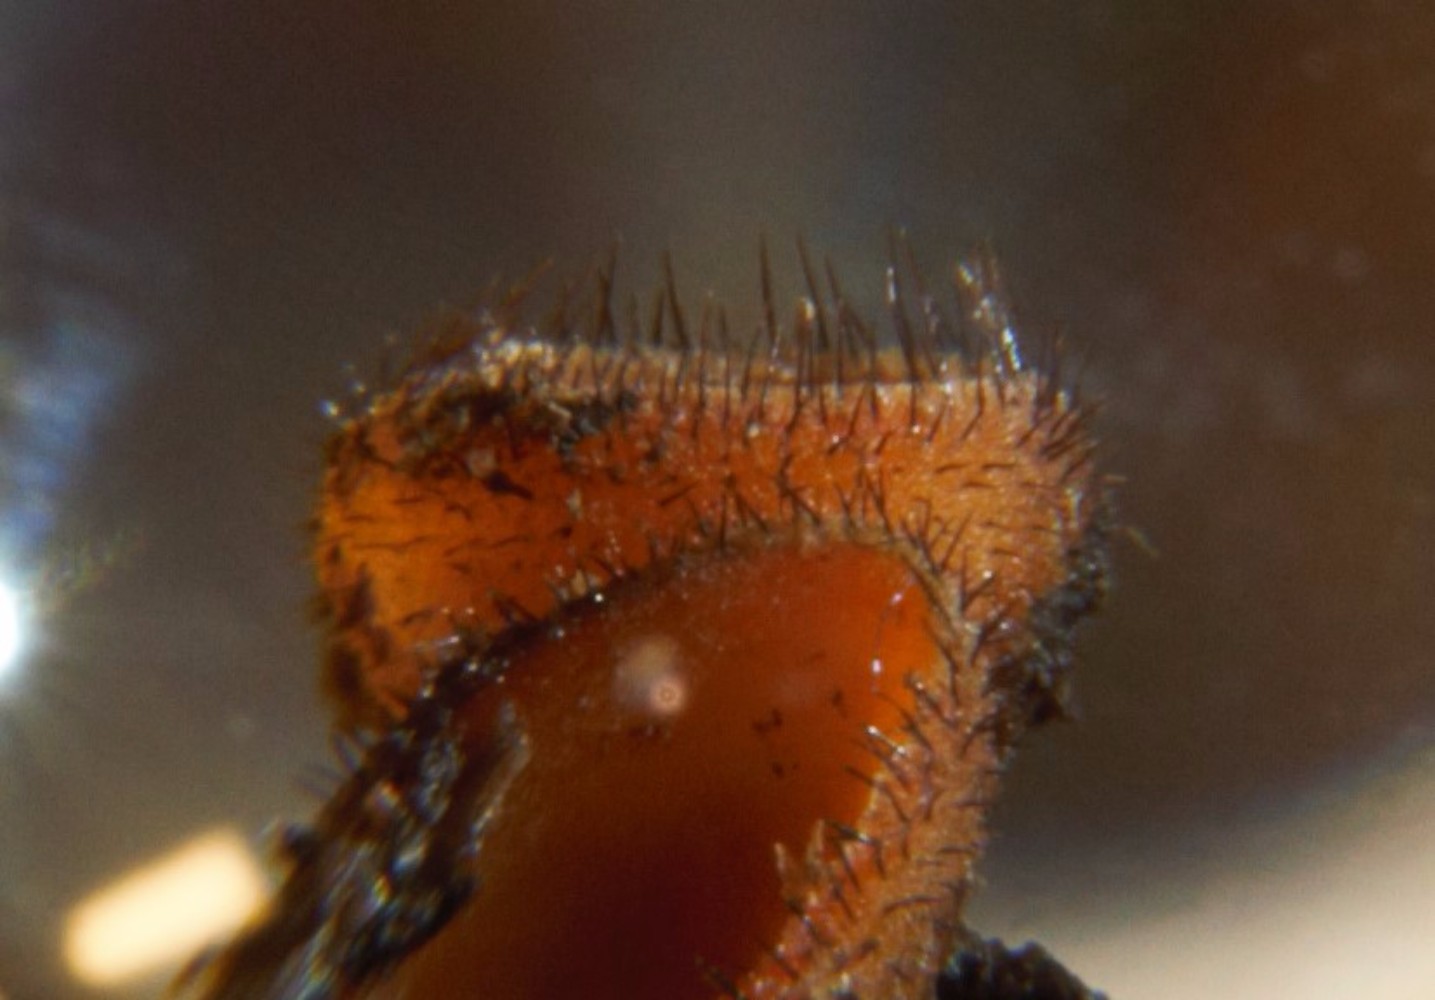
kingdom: Fungi
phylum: Ascomycota
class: Pezizomycetes
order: Pezizales
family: Pyronemataceae
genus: Scutellinia
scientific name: Scutellinia scutellata
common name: frynset skjoldbæger
